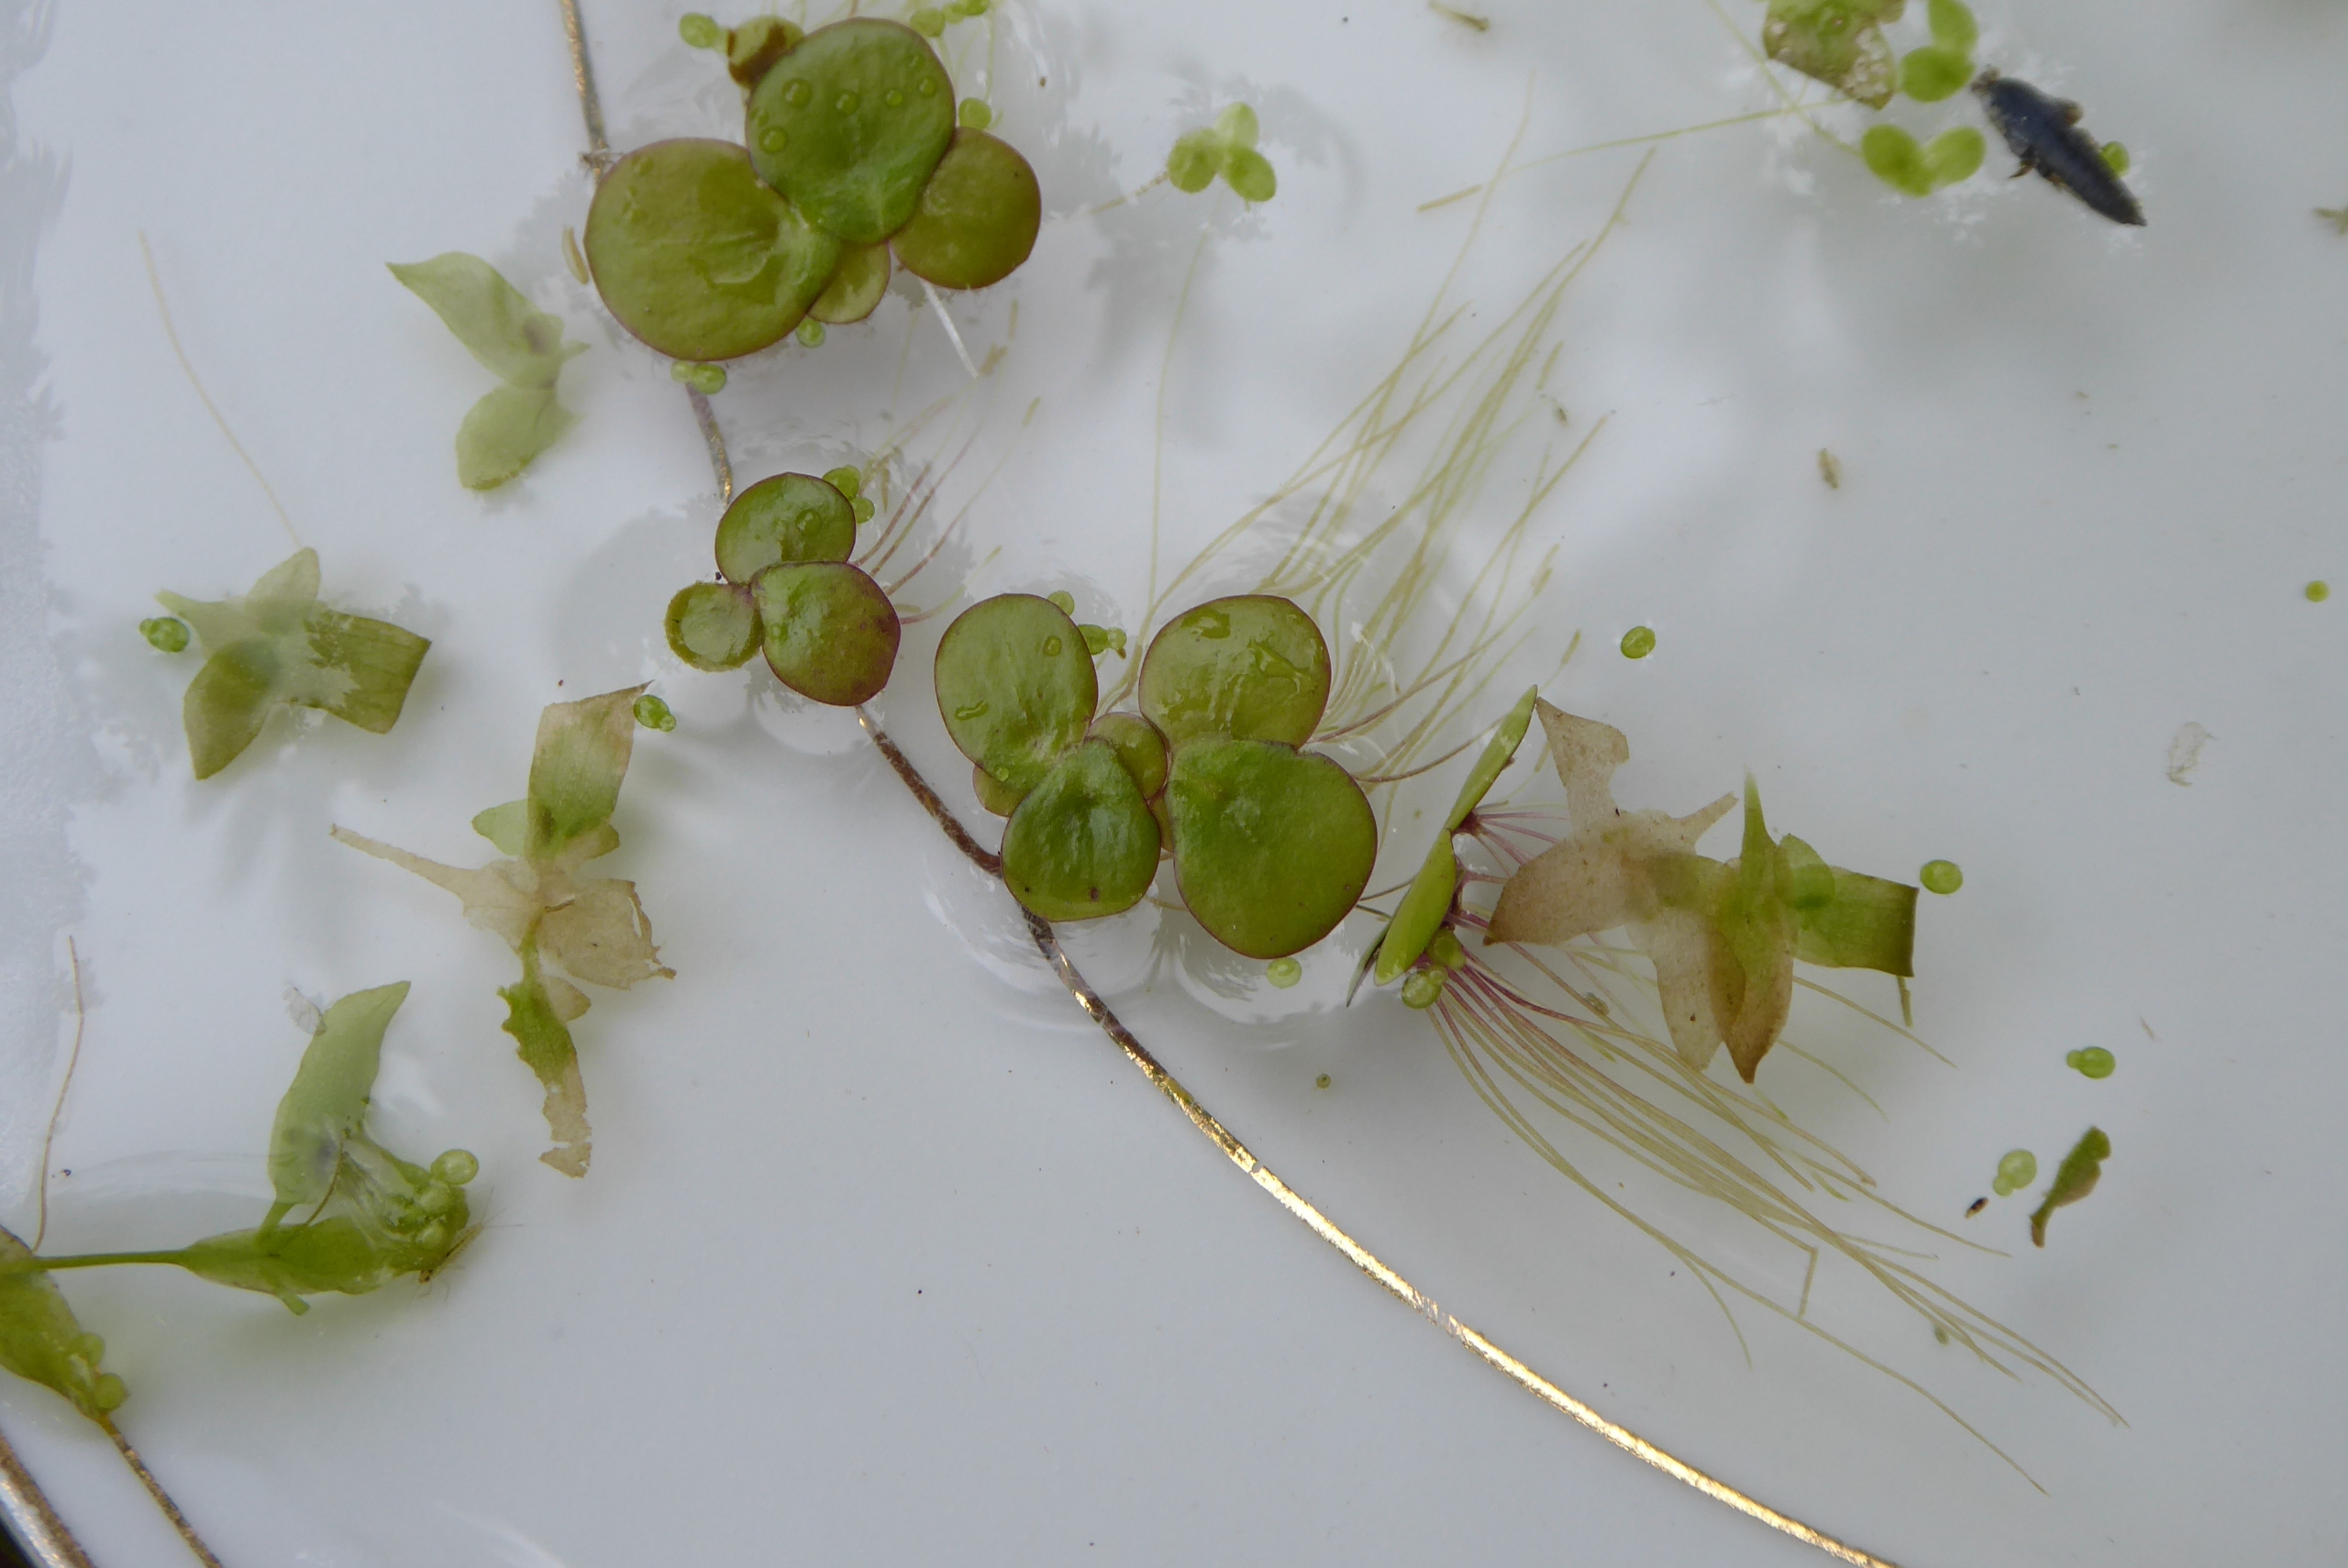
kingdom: Plantae
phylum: Tracheophyta
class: Liliopsida
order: Alismatales
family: Araceae
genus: Spirodela
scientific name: Spirodela polyrhiza
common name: Stor andemad
